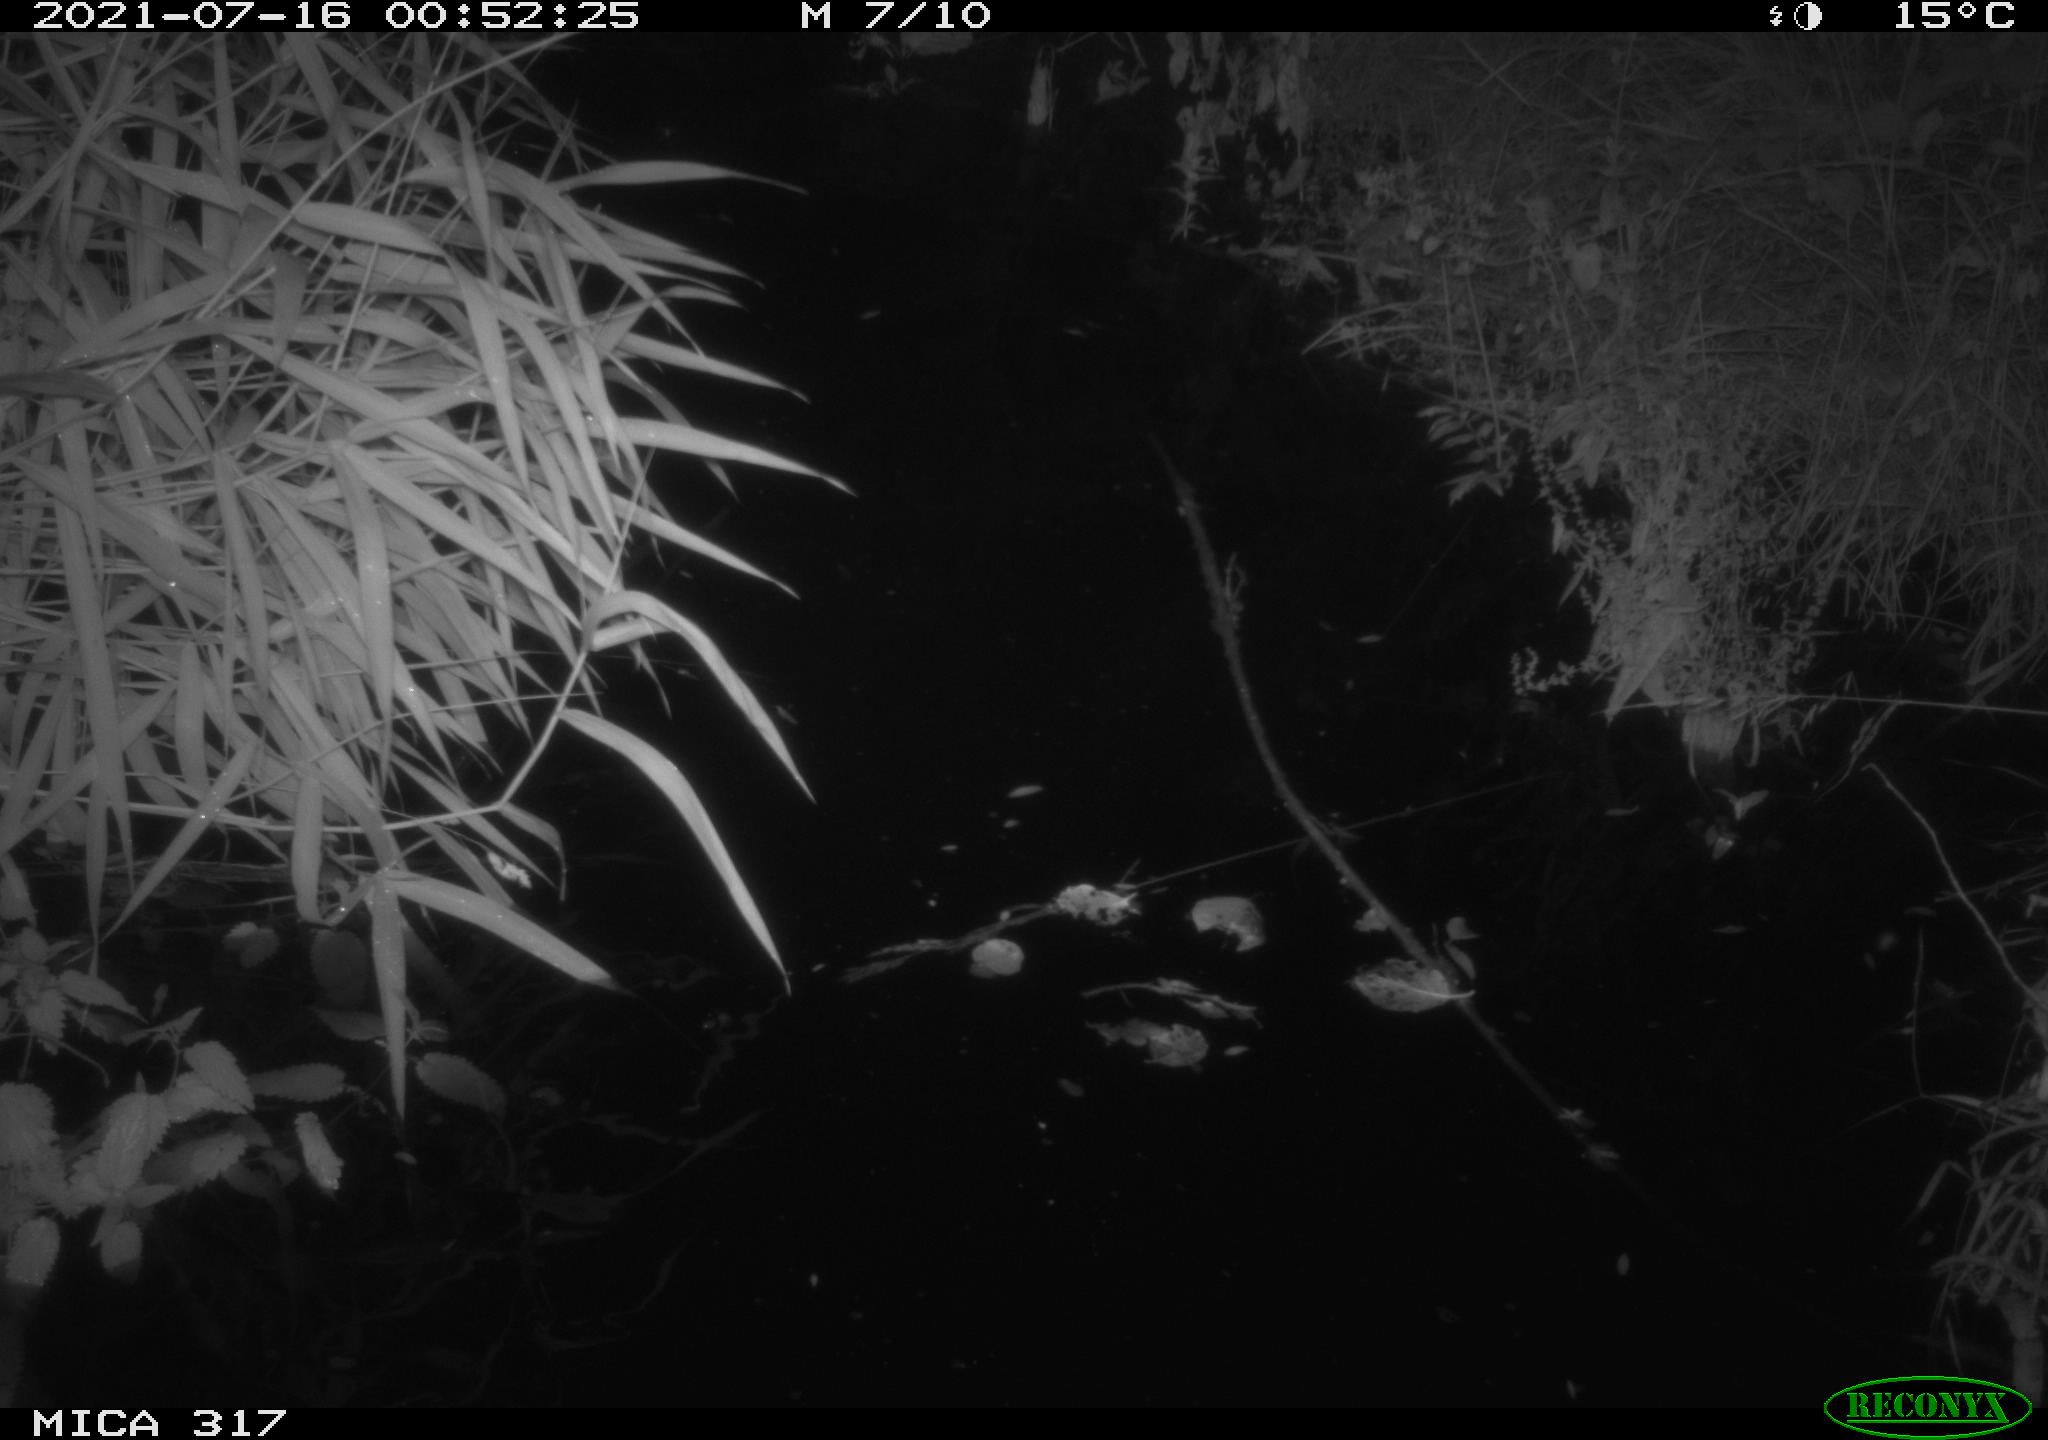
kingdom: Animalia
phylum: Chordata
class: Aves
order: Anseriformes
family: Anatidae
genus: Anas
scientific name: Anas platyrhynchos
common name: Mallard
